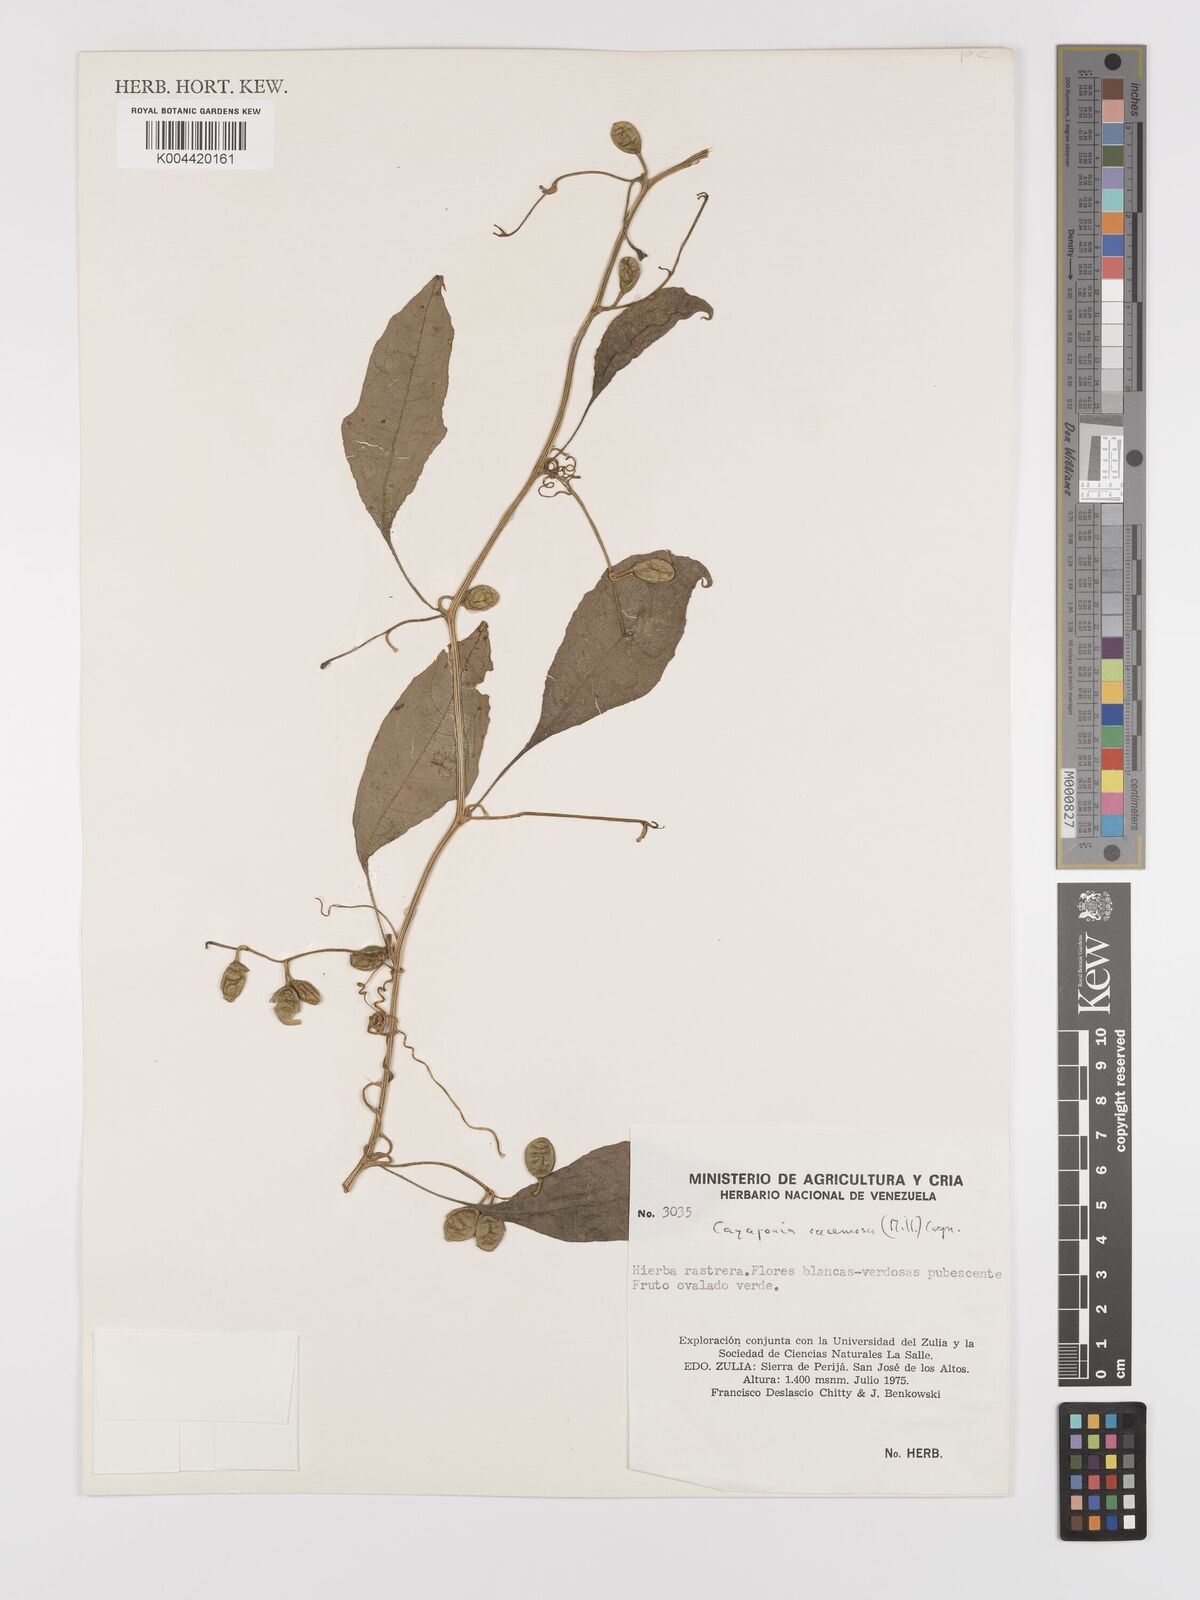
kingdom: Plantae
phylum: Tracheophyta
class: Magnoliopsida
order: Cucurbitales
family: Cucurbitaceae
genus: Cayaponia
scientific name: Cayaponia racemosa
